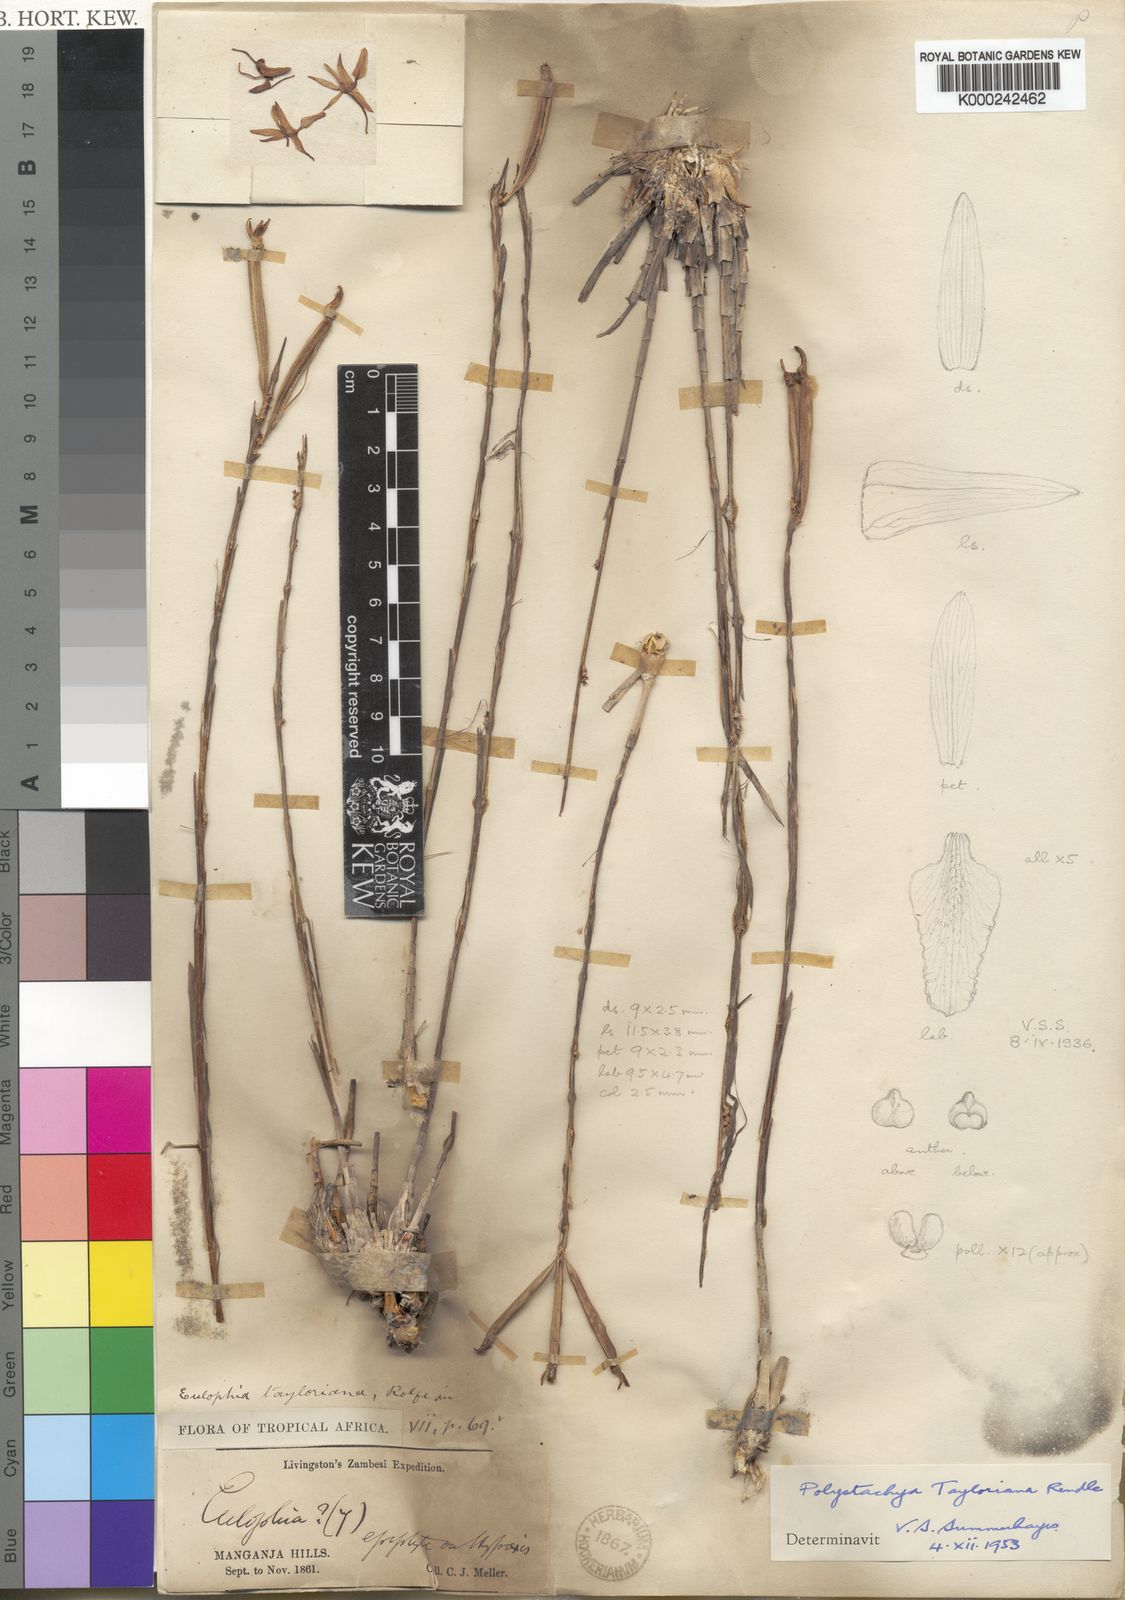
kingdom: Plantae
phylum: Tracheophyta
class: Liliopsida
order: Asparagales
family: Orchidaceae
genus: Polystachya
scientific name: Polystachya dendrobiiflora
